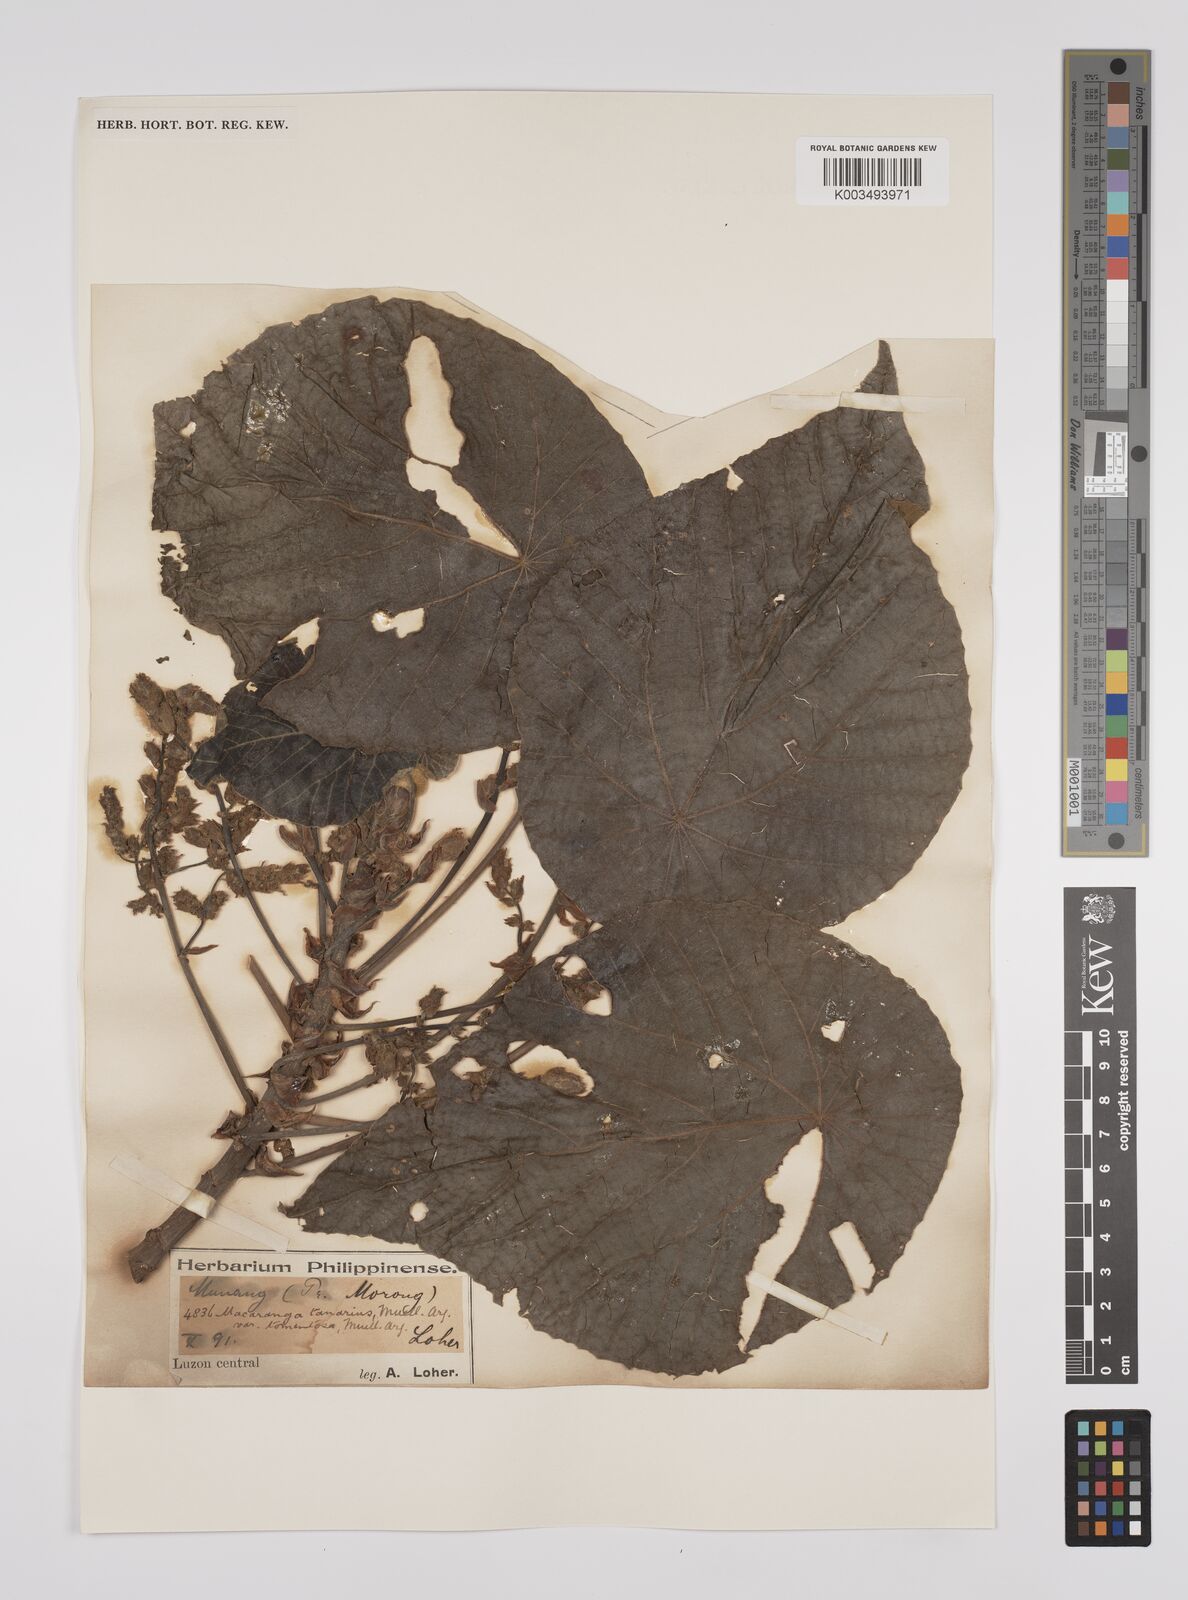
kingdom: Plantae
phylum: Tracheophyta
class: Magnoliopsida
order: Malpighiales
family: Euphorbiaceae
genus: Macaranga
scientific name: Macaranga tanarius
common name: Parasol leaf tree
